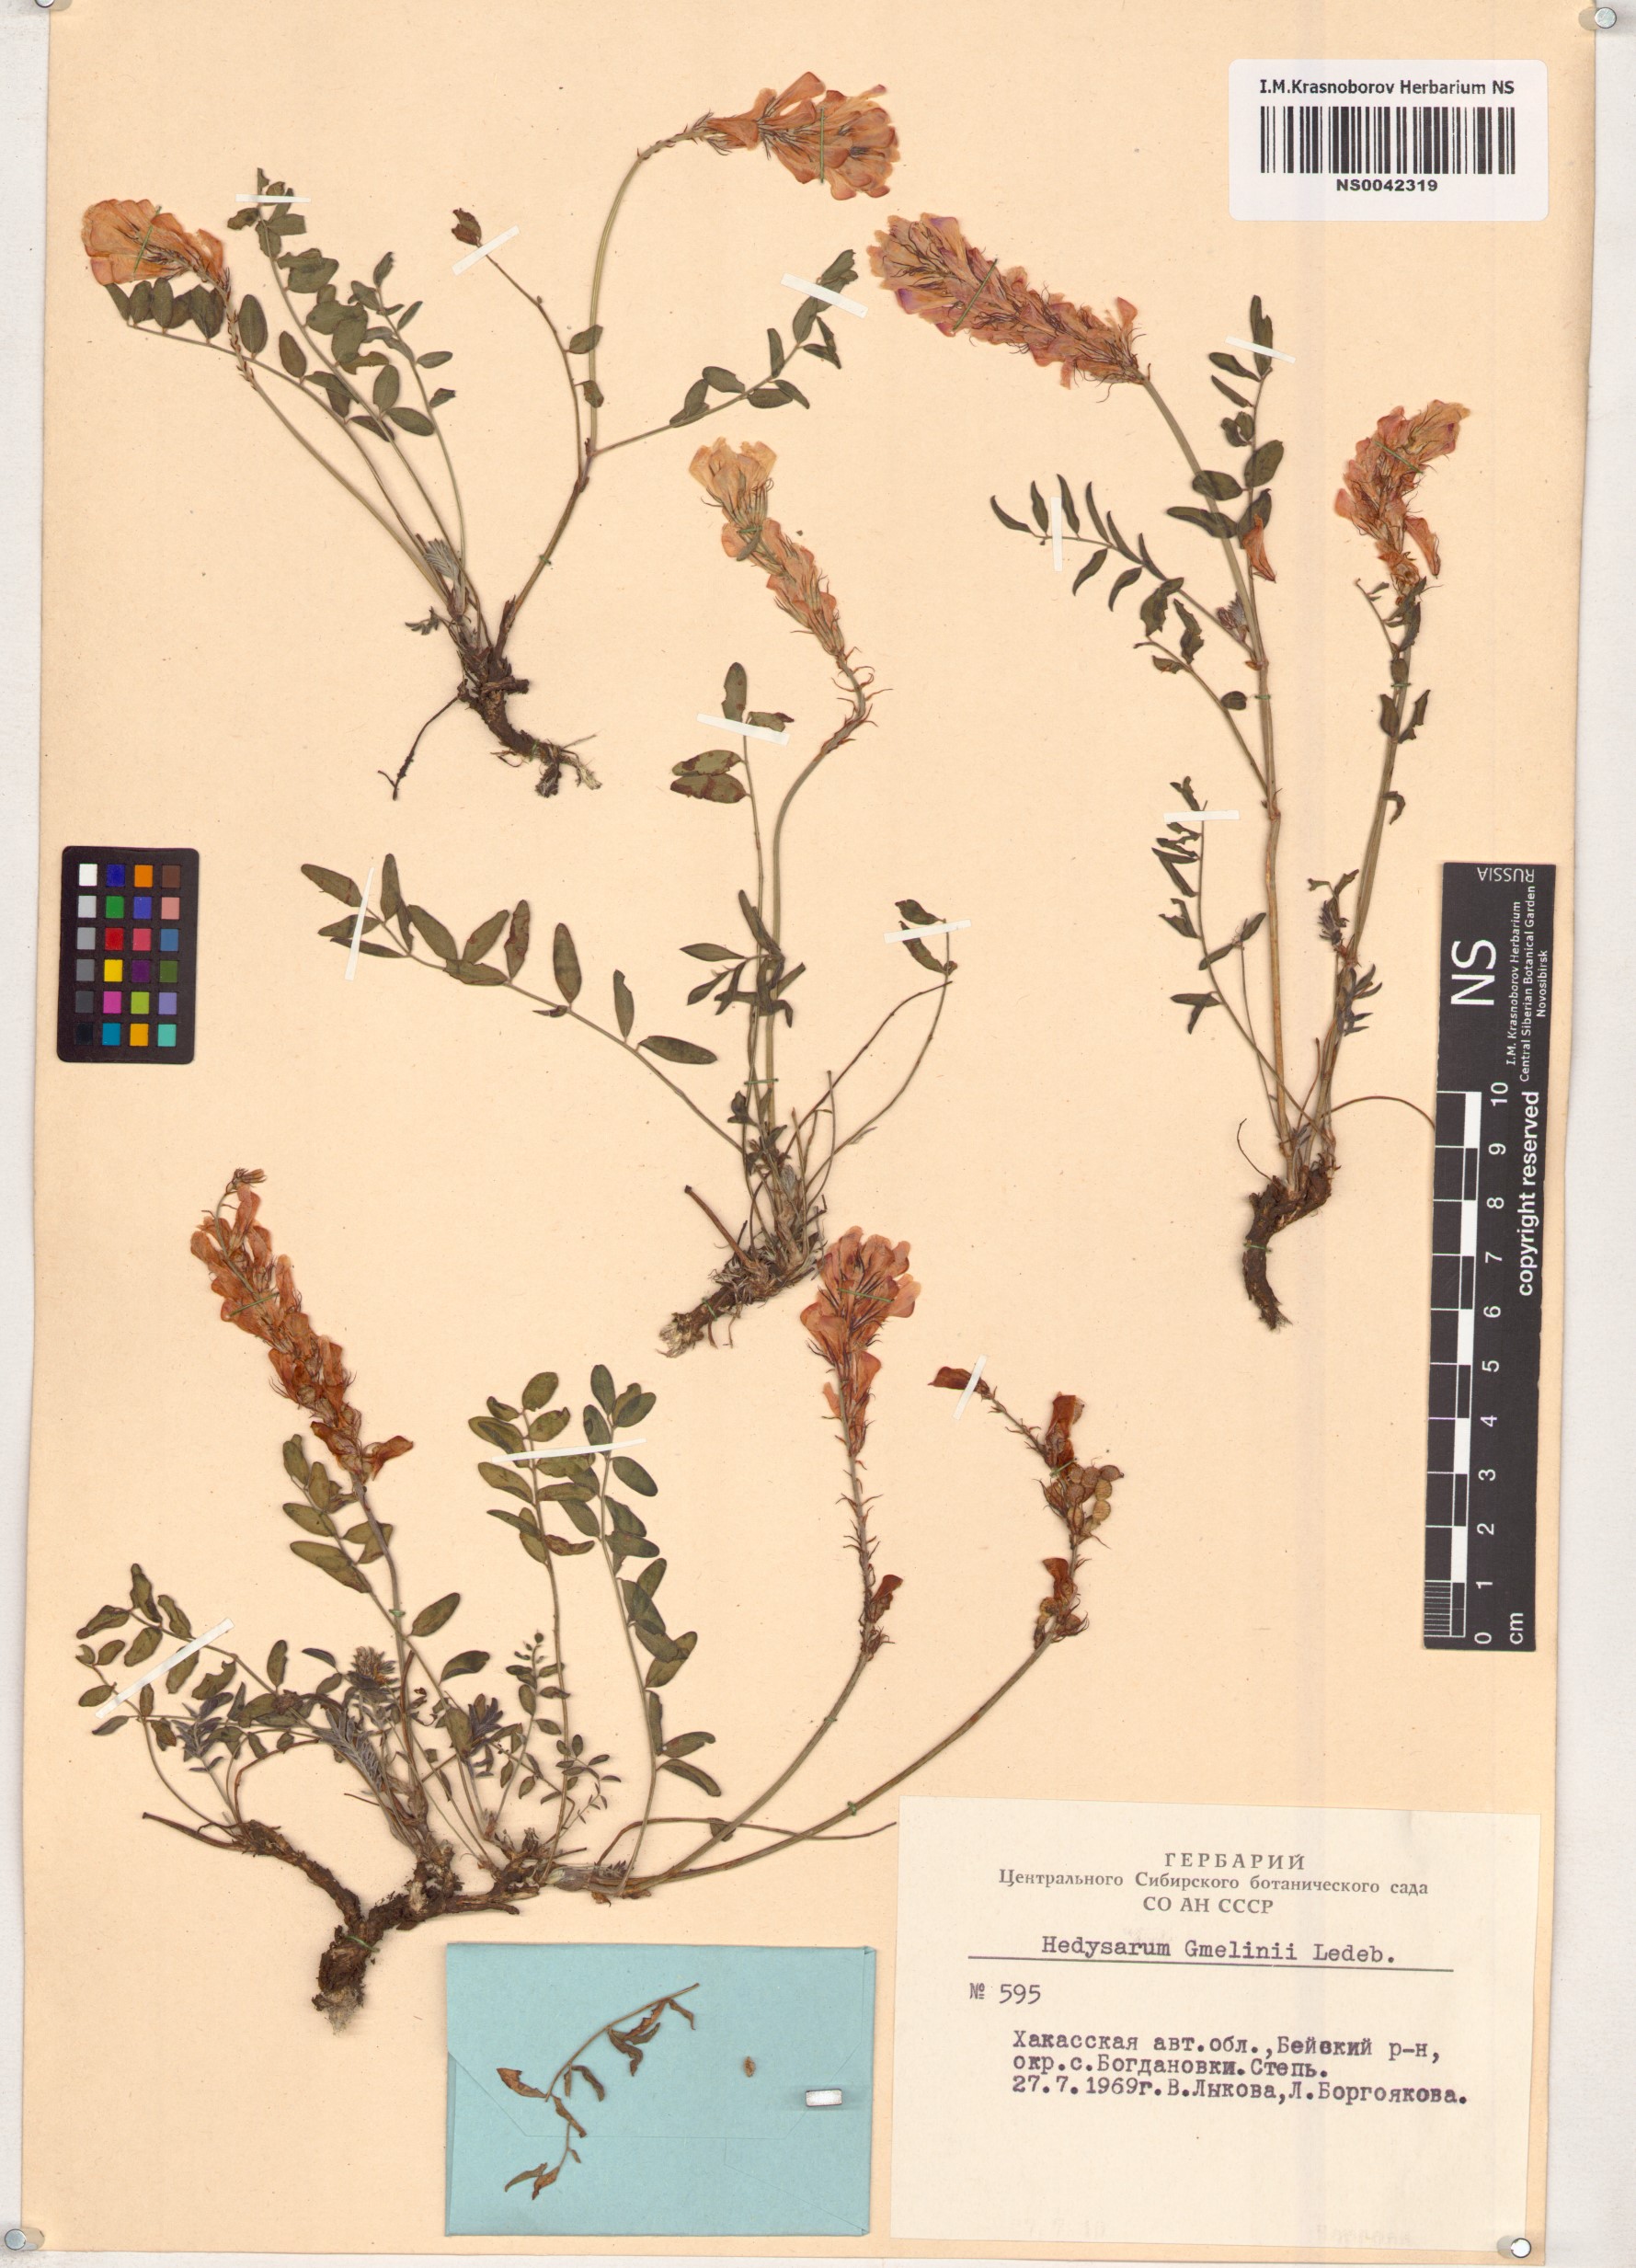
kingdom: Plantae
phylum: Tracheophyta
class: Magnoliopsida
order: Fabales
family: Fabaceae
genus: Hedysarum
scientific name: Hedysarum gmelinii
